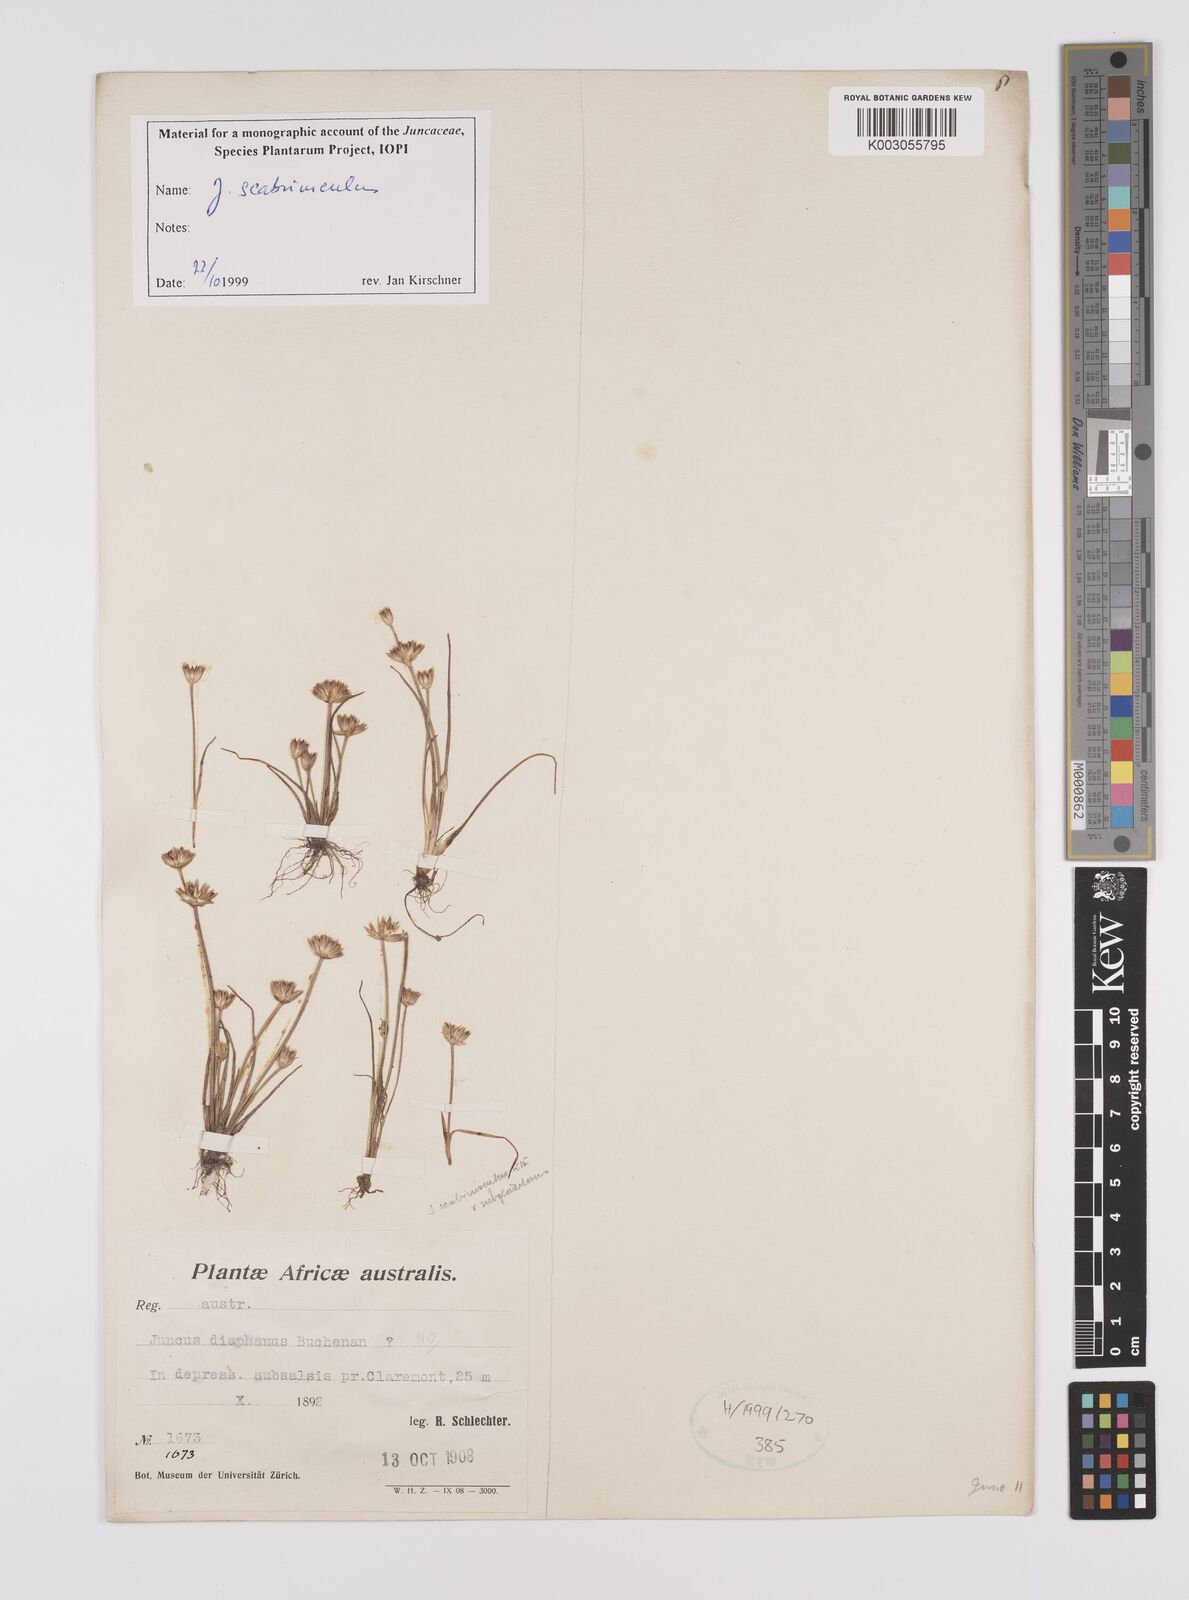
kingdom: Plantae
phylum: Tracheophyta
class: Liliopsida
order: Poales
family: Juncaceae
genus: Juncus
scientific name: Juncus scabriusculus
